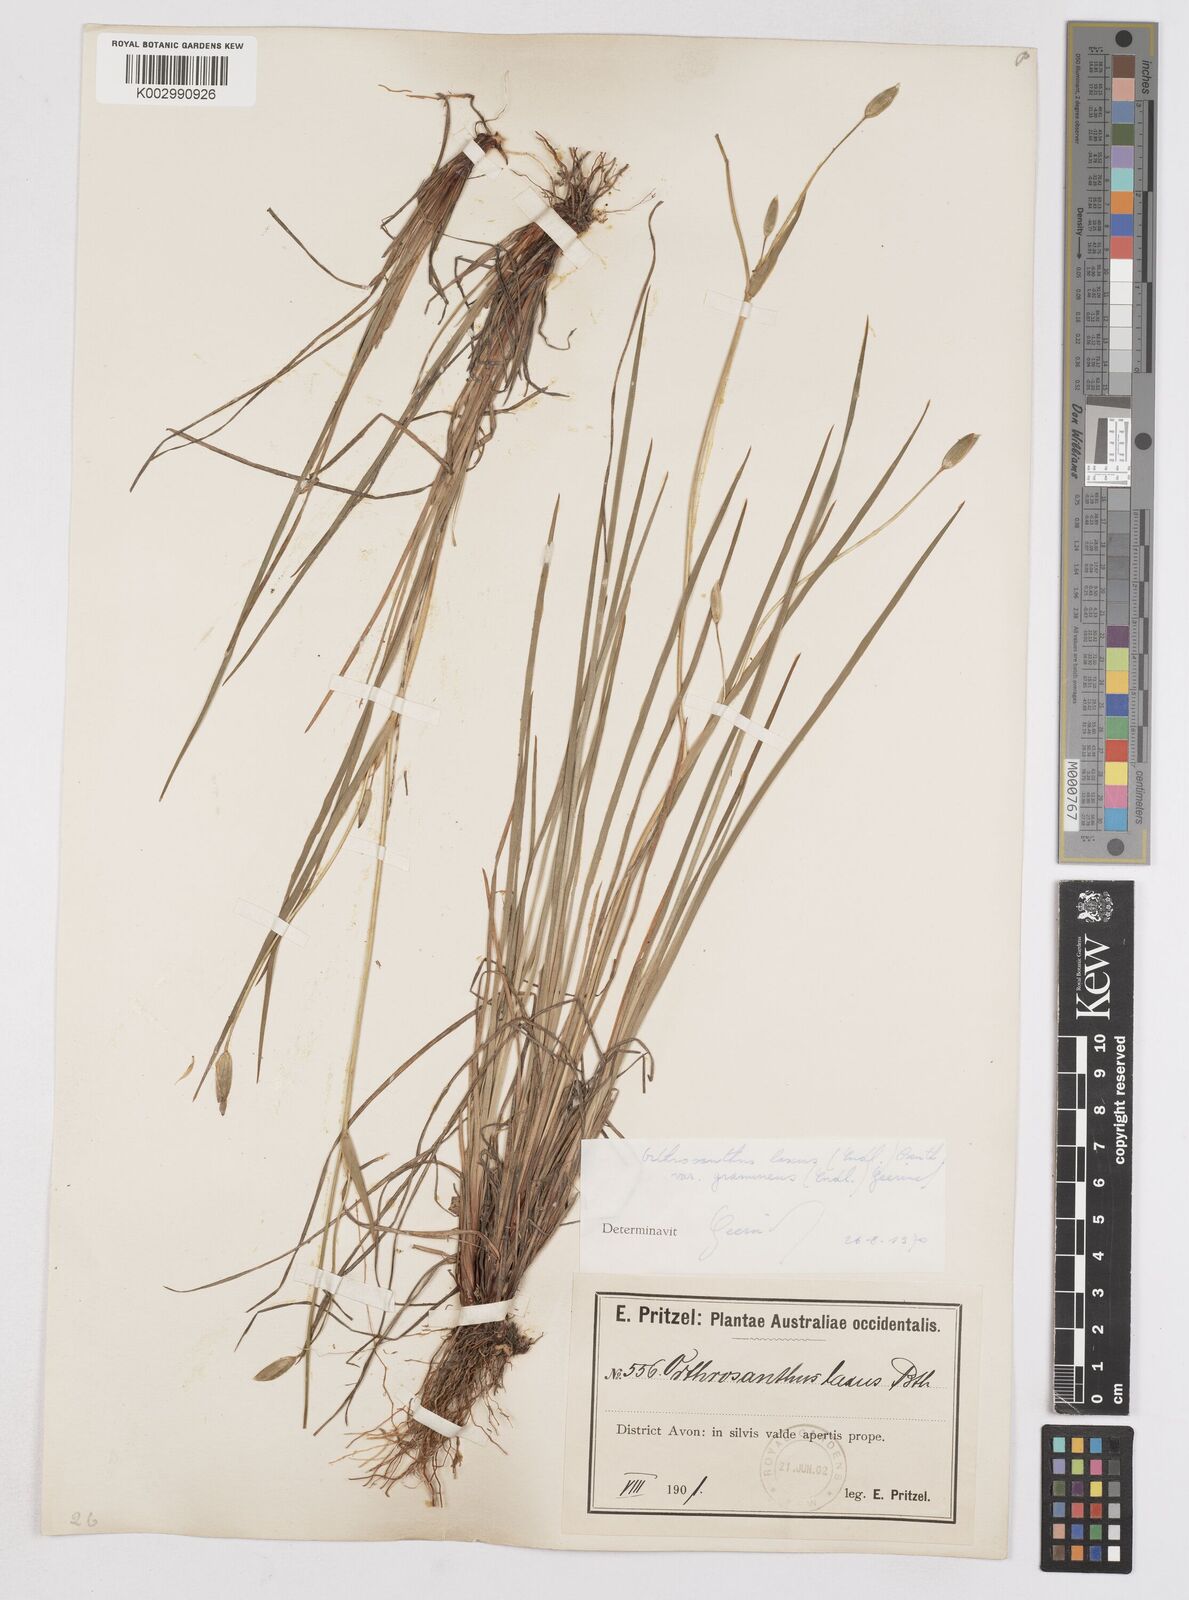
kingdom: Plantae
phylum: Tracheophyta
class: Liliopsida
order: Asparagales
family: Iridaceae
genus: Orthrosanthus
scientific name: Orthrosanthus laxus
